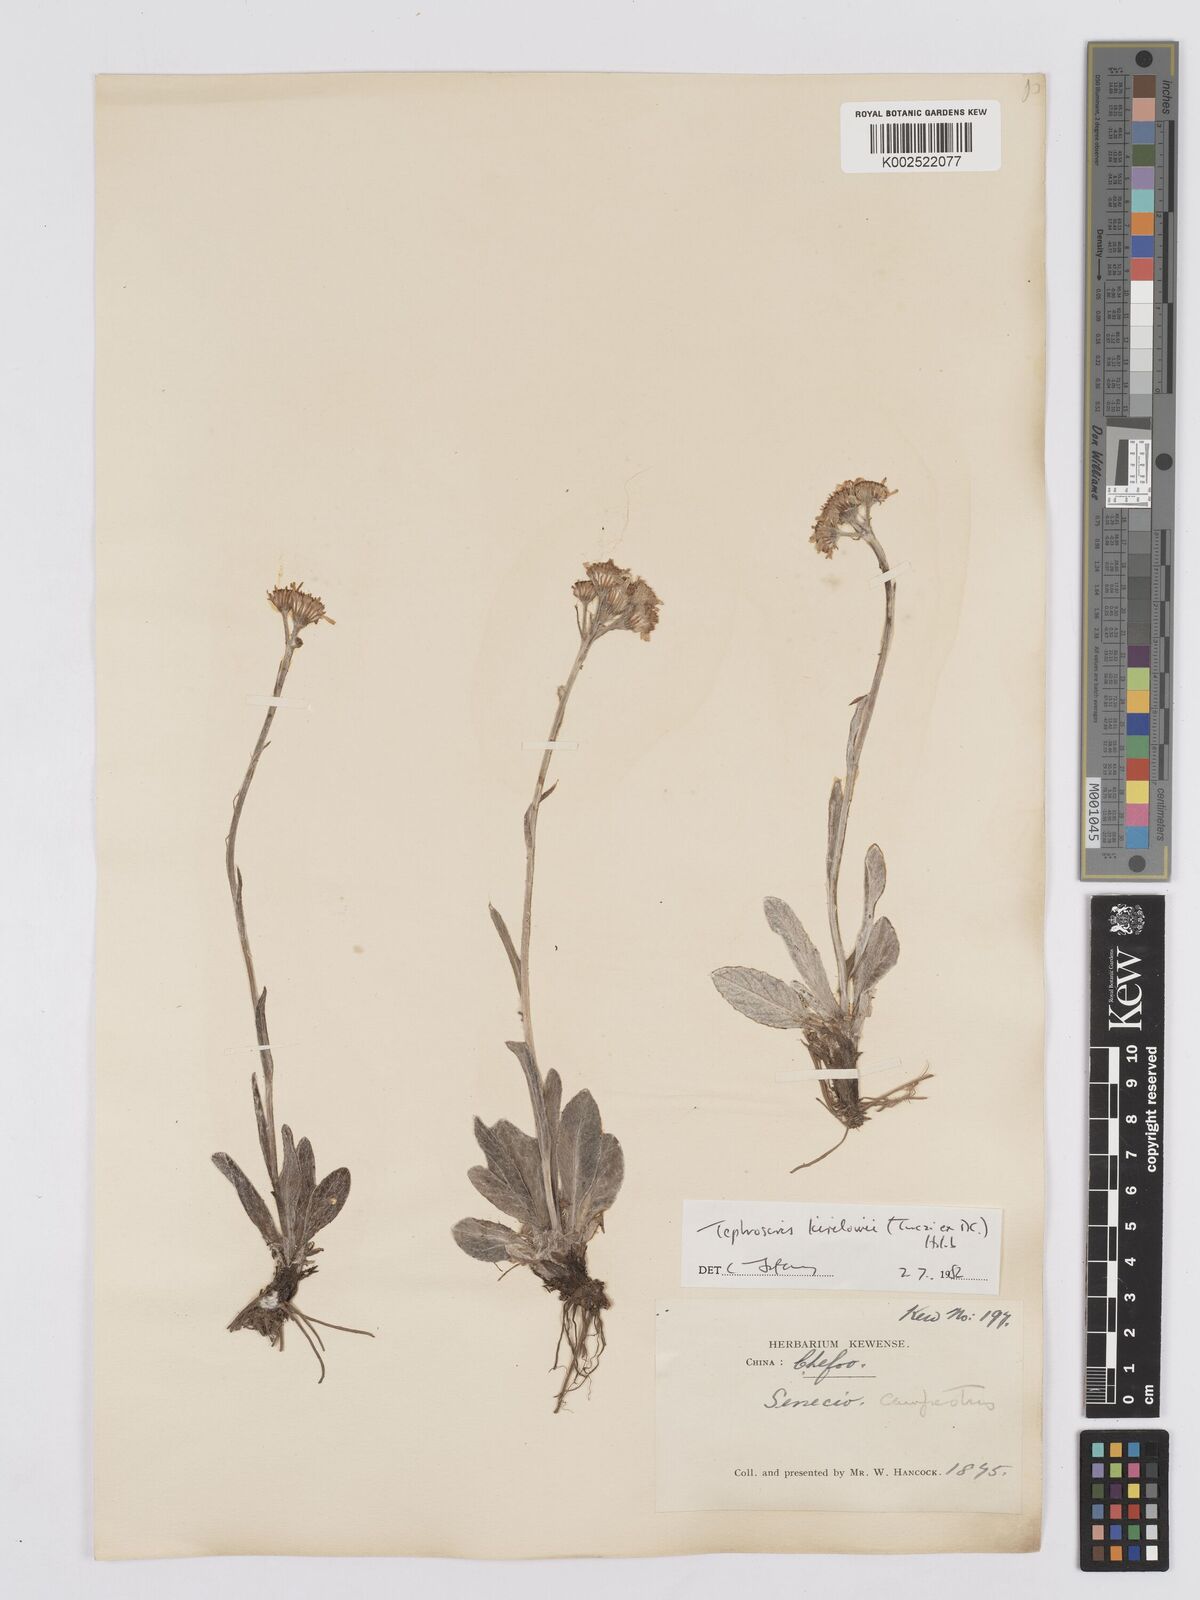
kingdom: Plantae
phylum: Tracheophyta
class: Magnoliopsida
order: Asterales
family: Asteraceae
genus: Tephroseris
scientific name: Tephroseris kirilowii
